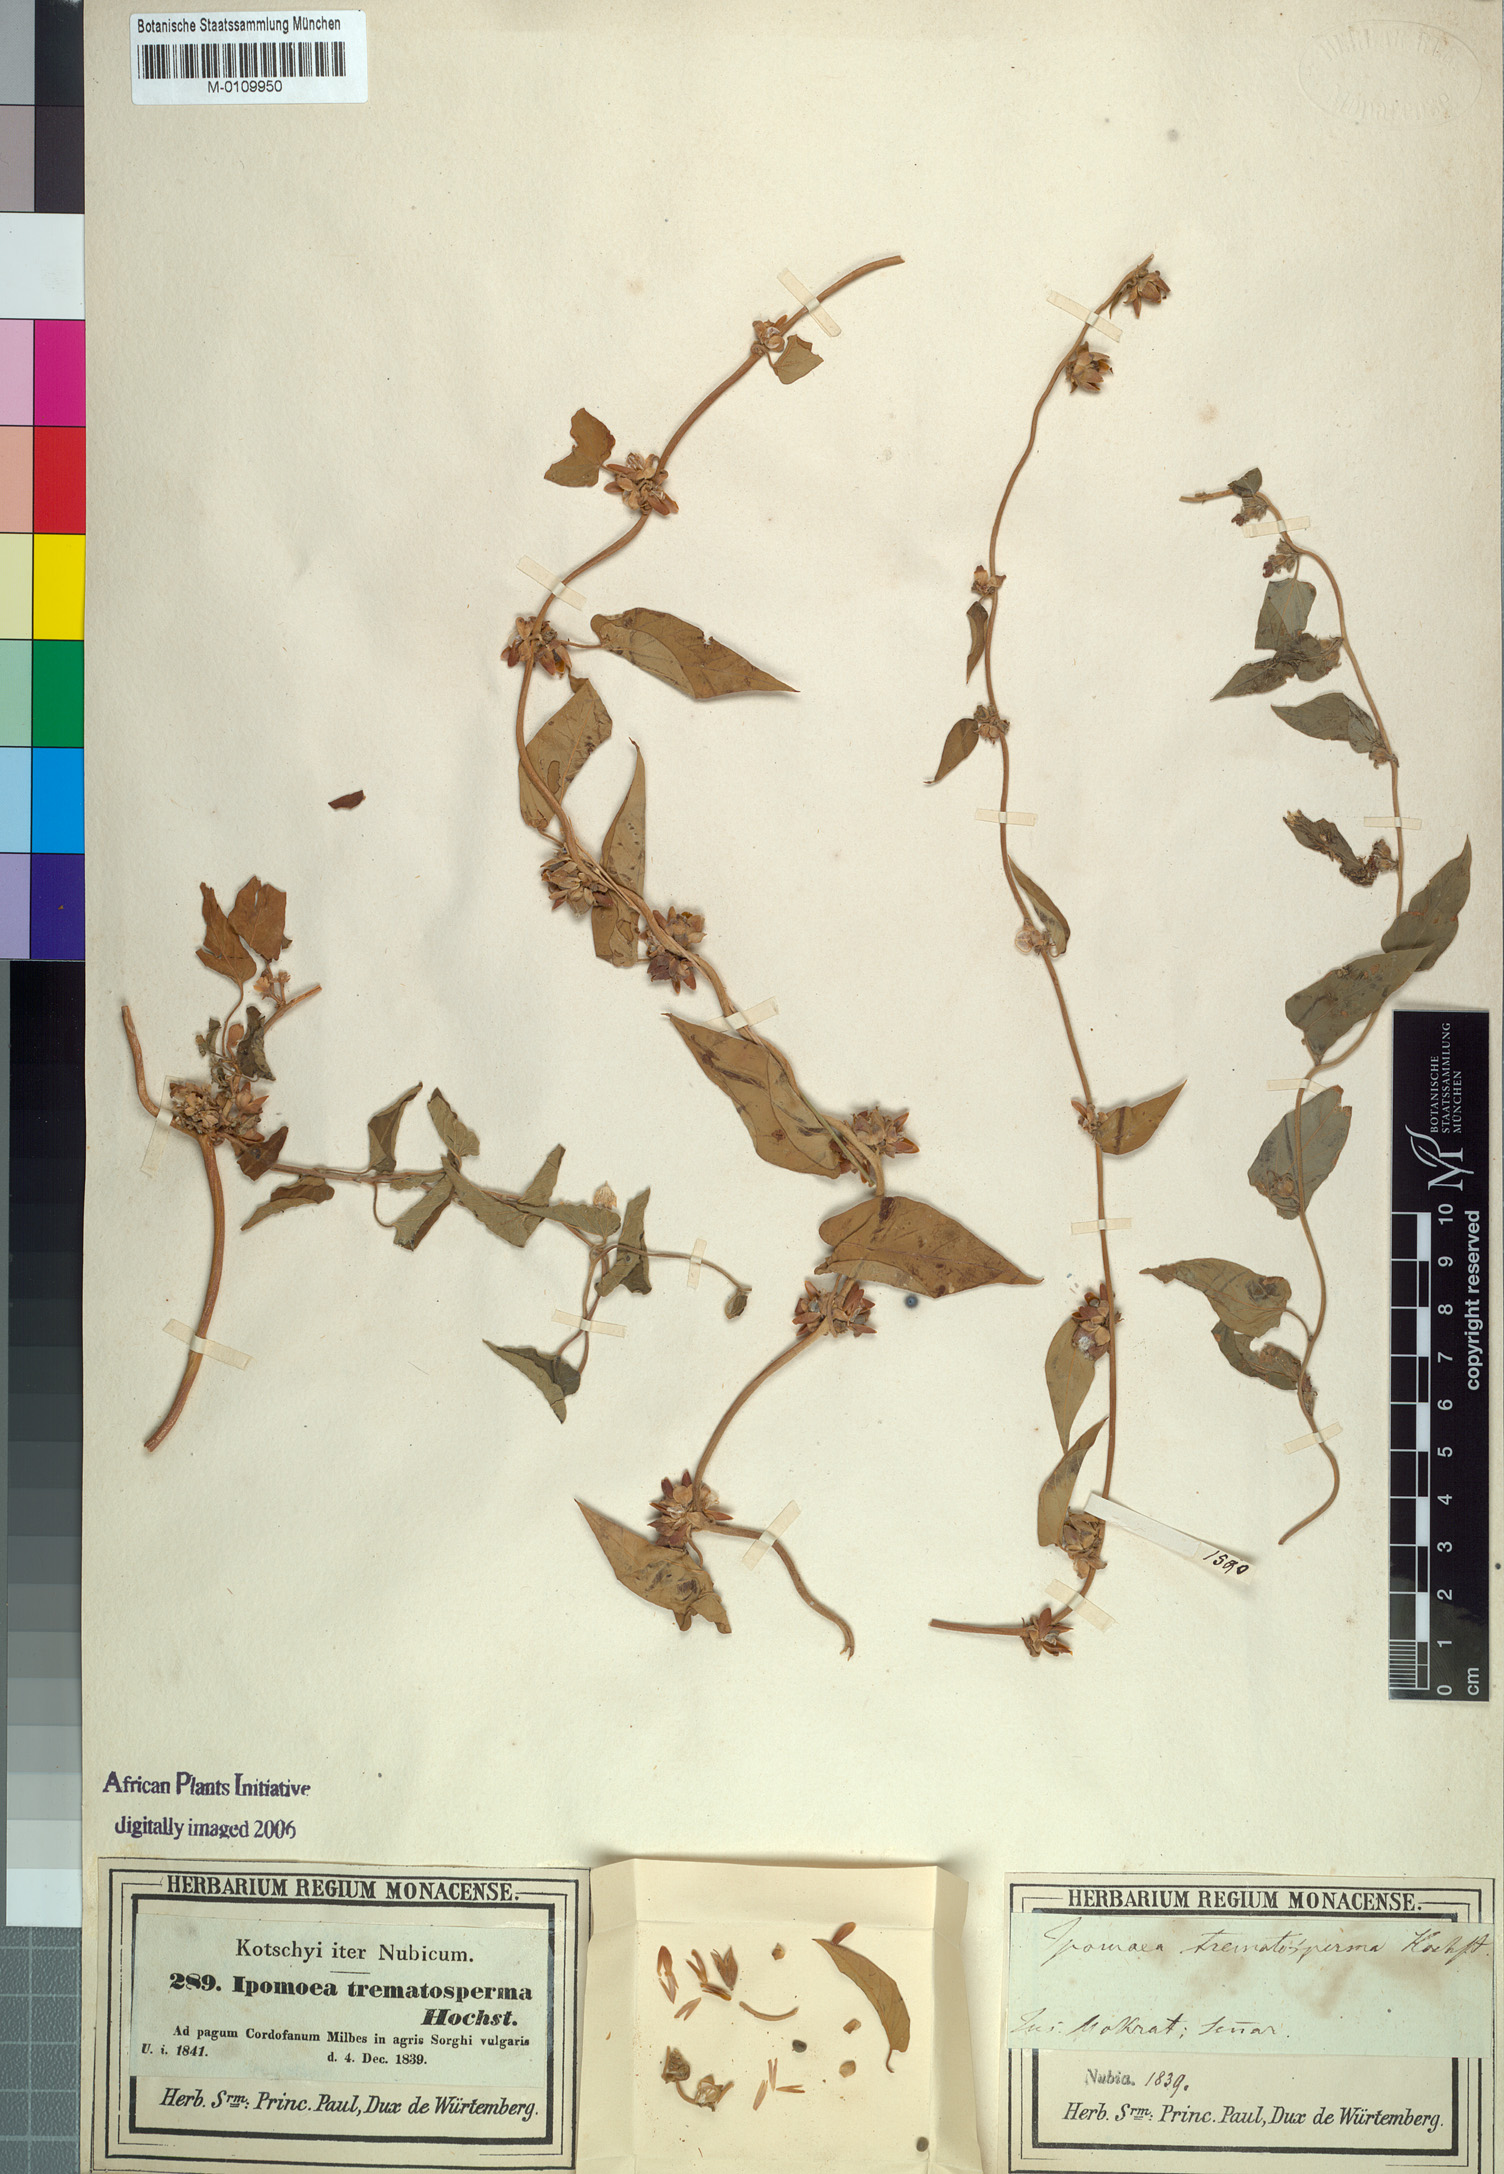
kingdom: Plantae
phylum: Tracheophyta
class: Magnoliopsida
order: Solanales
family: Convolvulaceae
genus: Ipomoea
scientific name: Ipomoea eriocarpa
